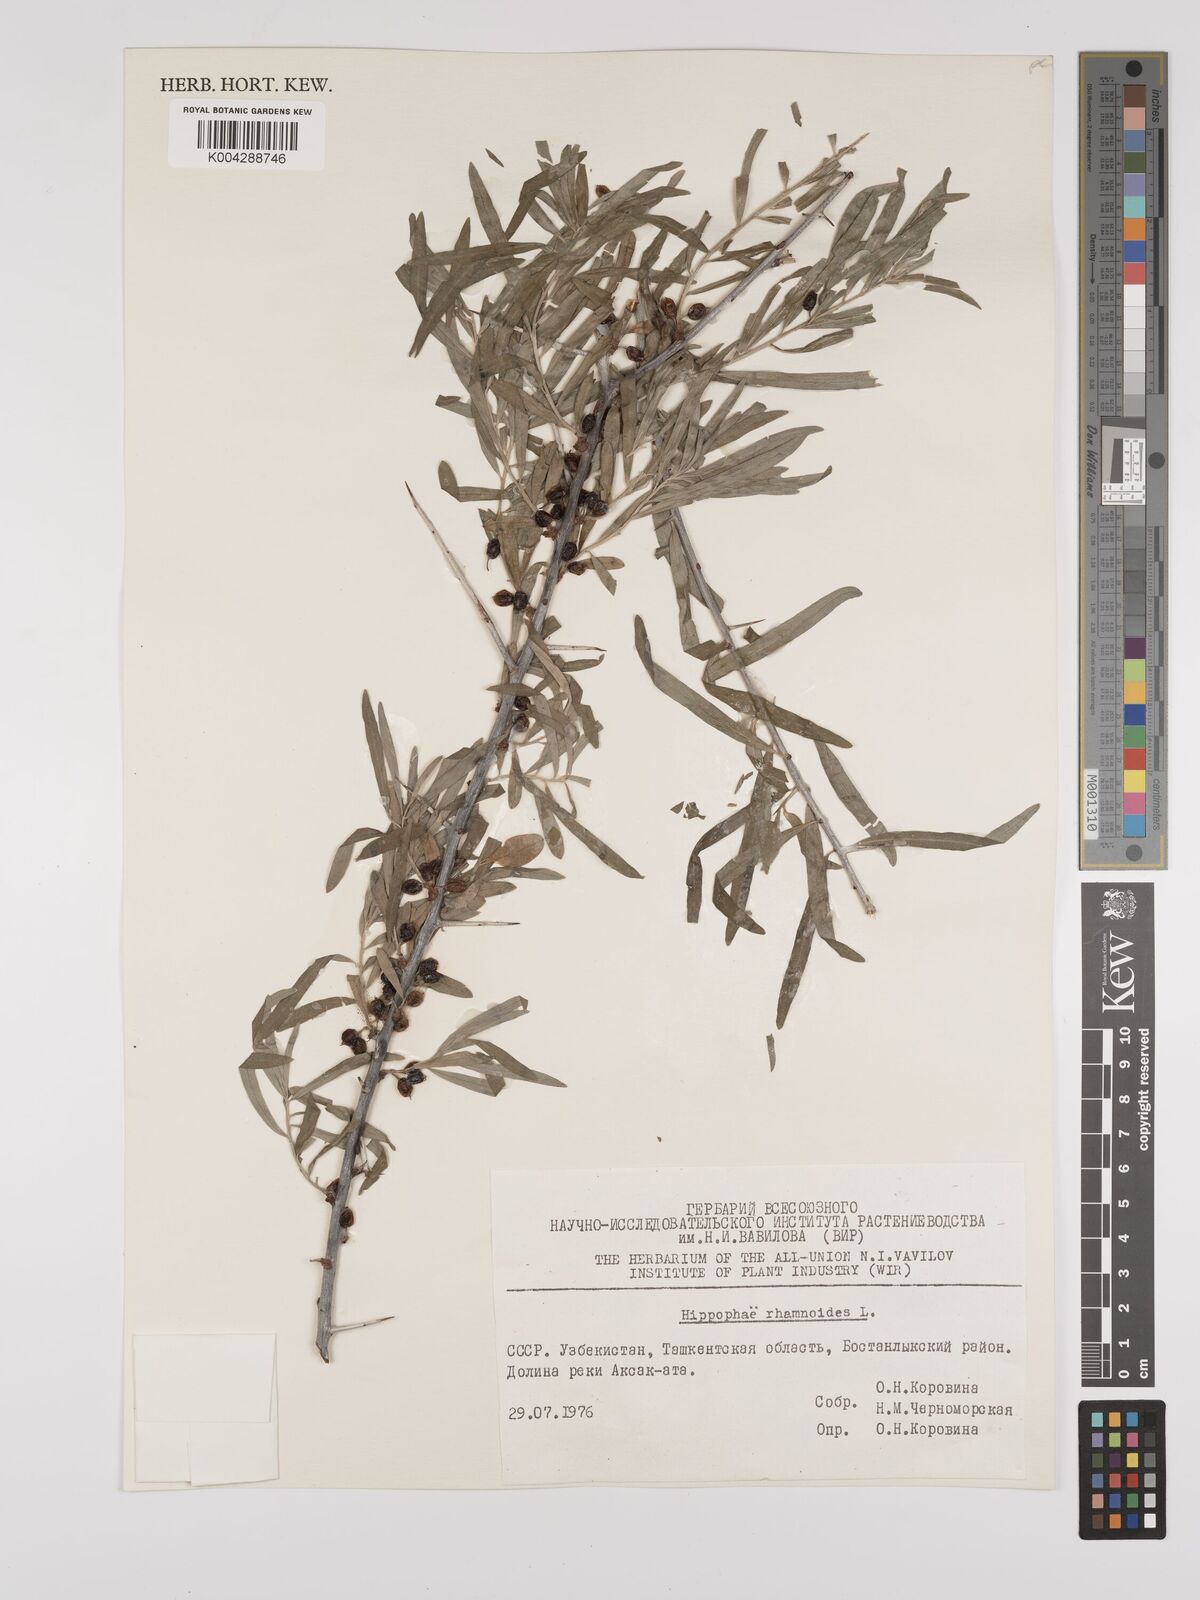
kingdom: Plantae
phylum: Tracheophyta
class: Magnoliopsida
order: Rosales
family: Elaeagnaceae
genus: Hippophae
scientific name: Hippophae rhamnoides
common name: Sea-buckthorn
